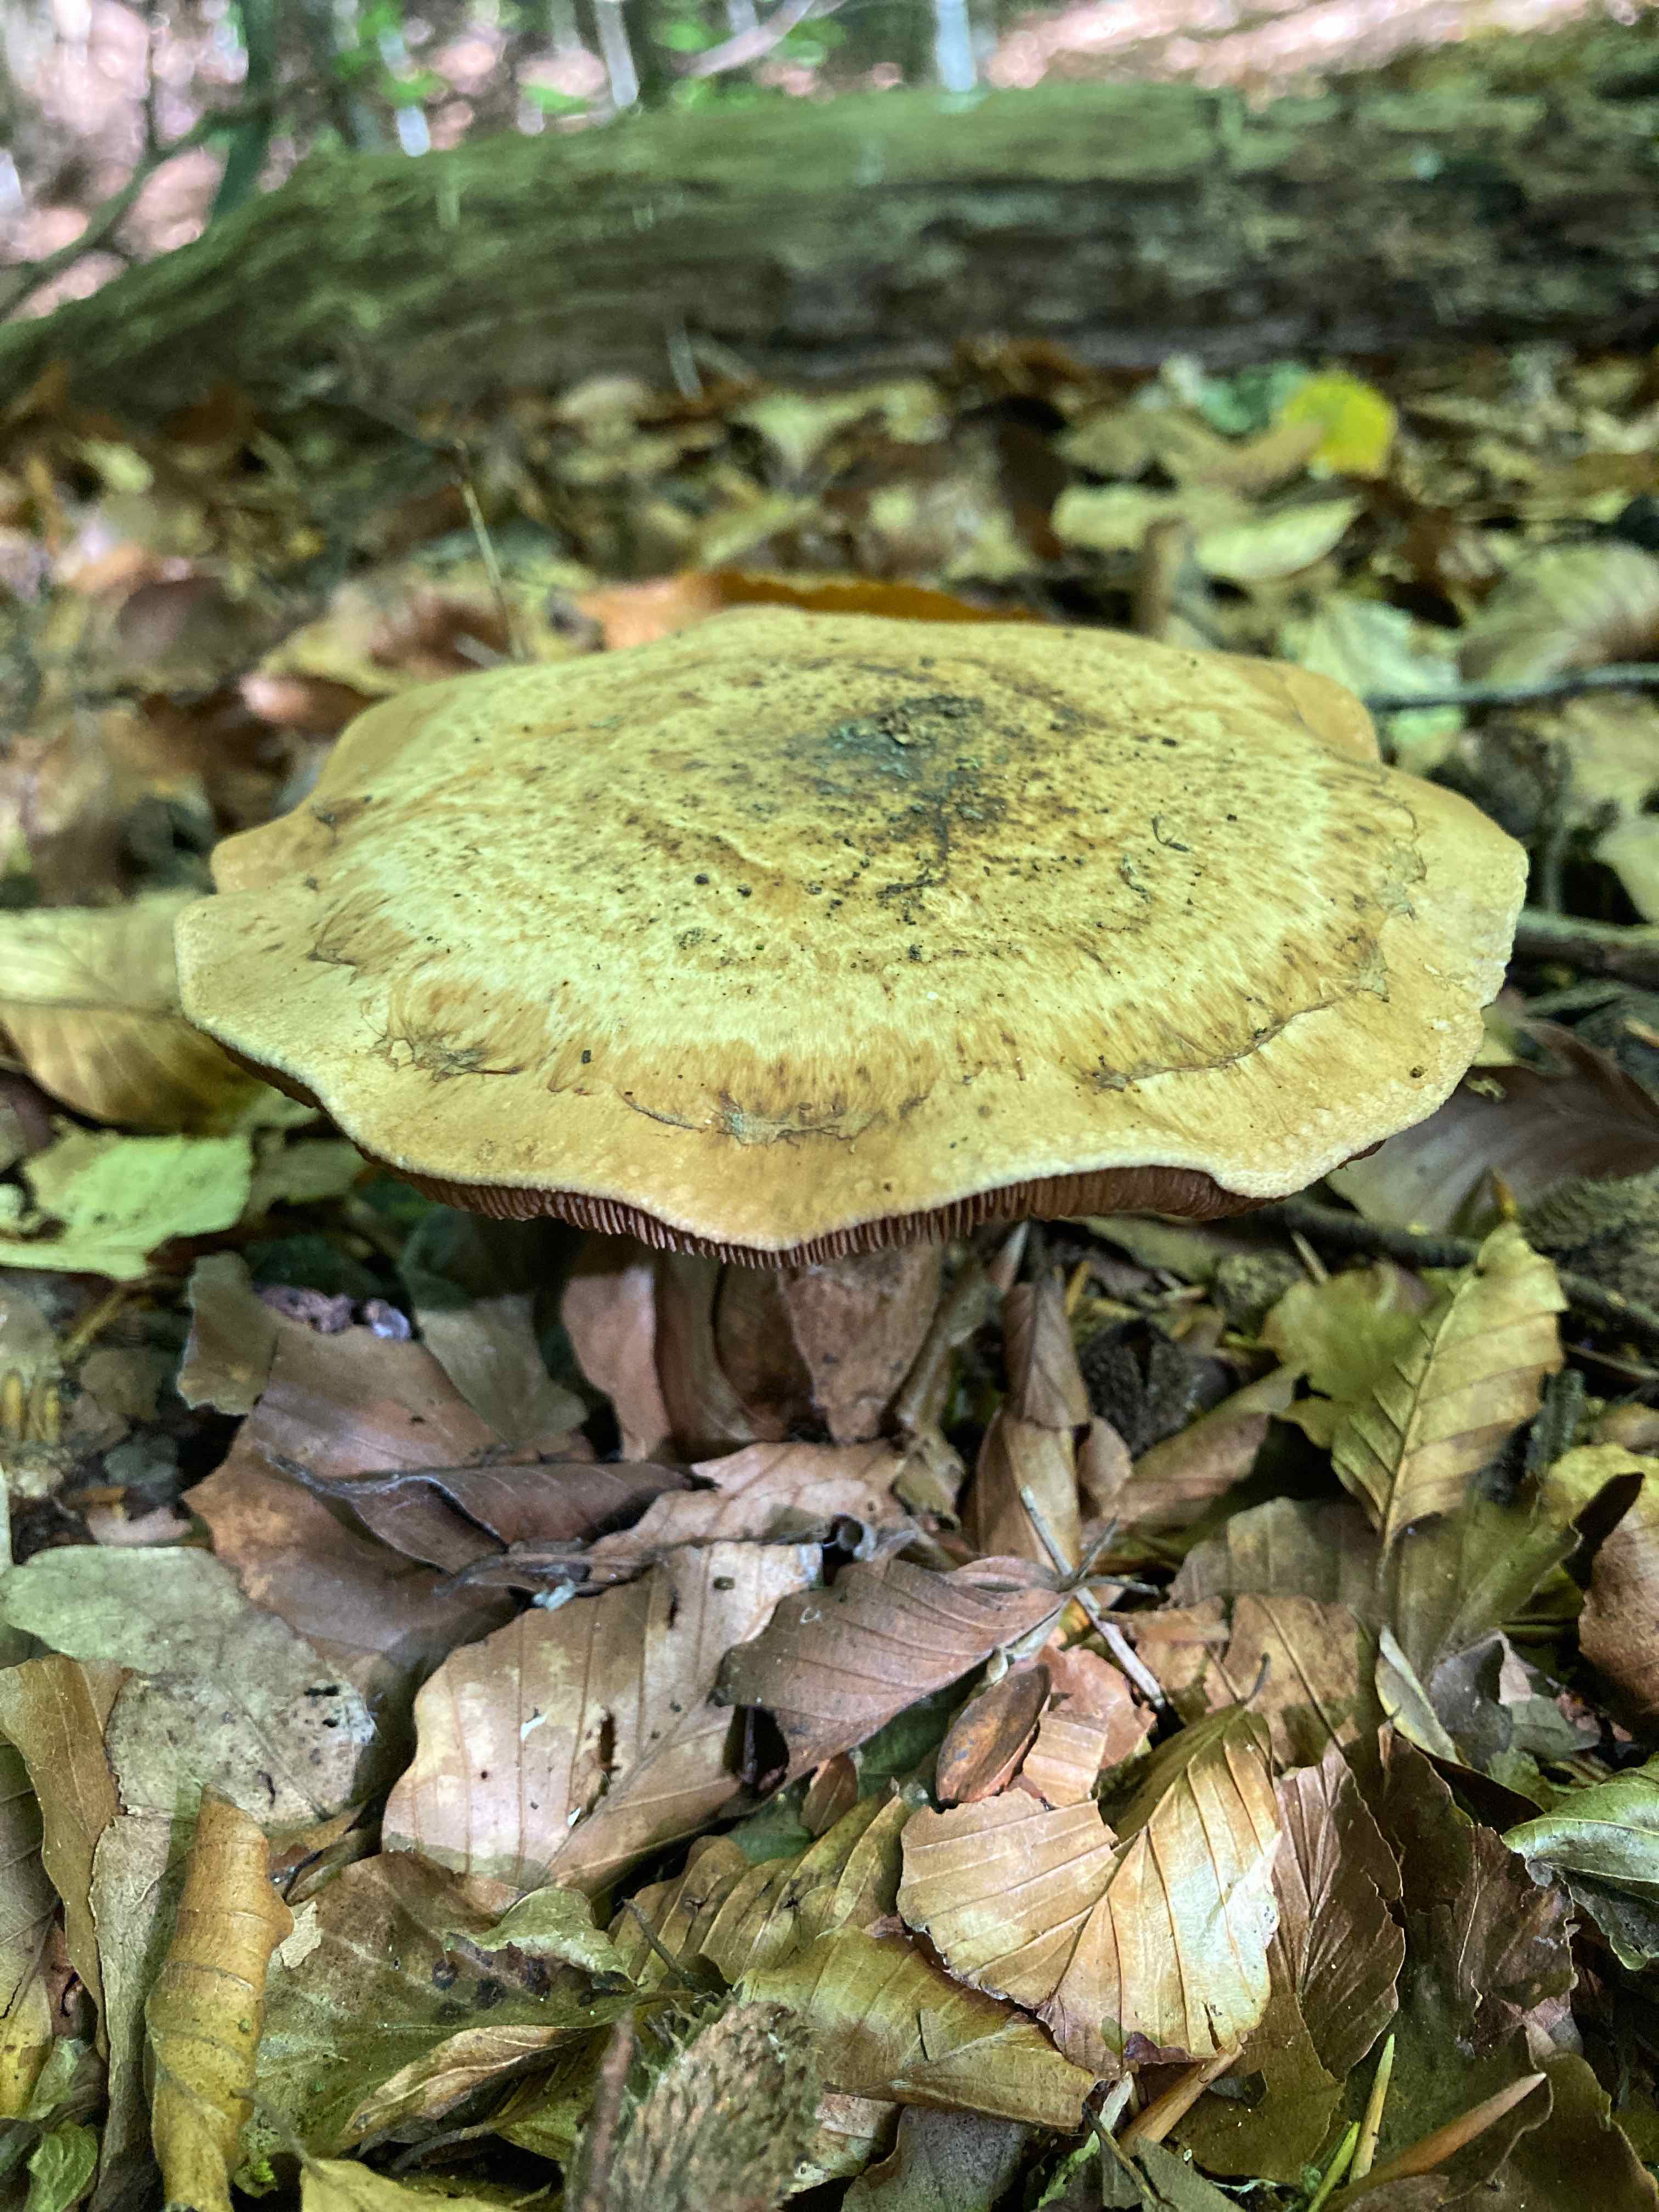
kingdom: Fungi
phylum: Basidiomycota
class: Agaricomycetes
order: Agaricales
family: Hymenogastraceae
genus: Hebeloma
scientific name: Hebeloma radicosum
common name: pælerods-tåreblad
